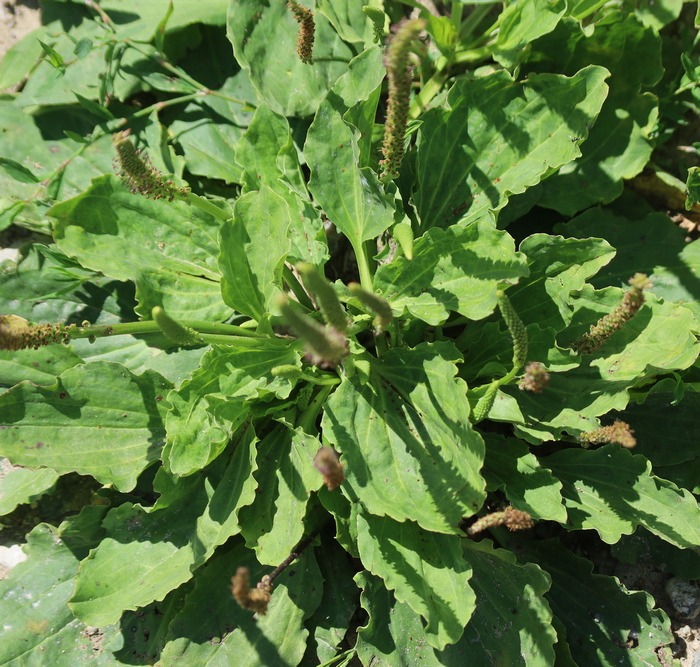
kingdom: Plantae
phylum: Tracheophyta
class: Magnoliopsida
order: Lamiales
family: Plantaginaceae
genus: Plantago
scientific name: Plantago major
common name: Glat vejbred
